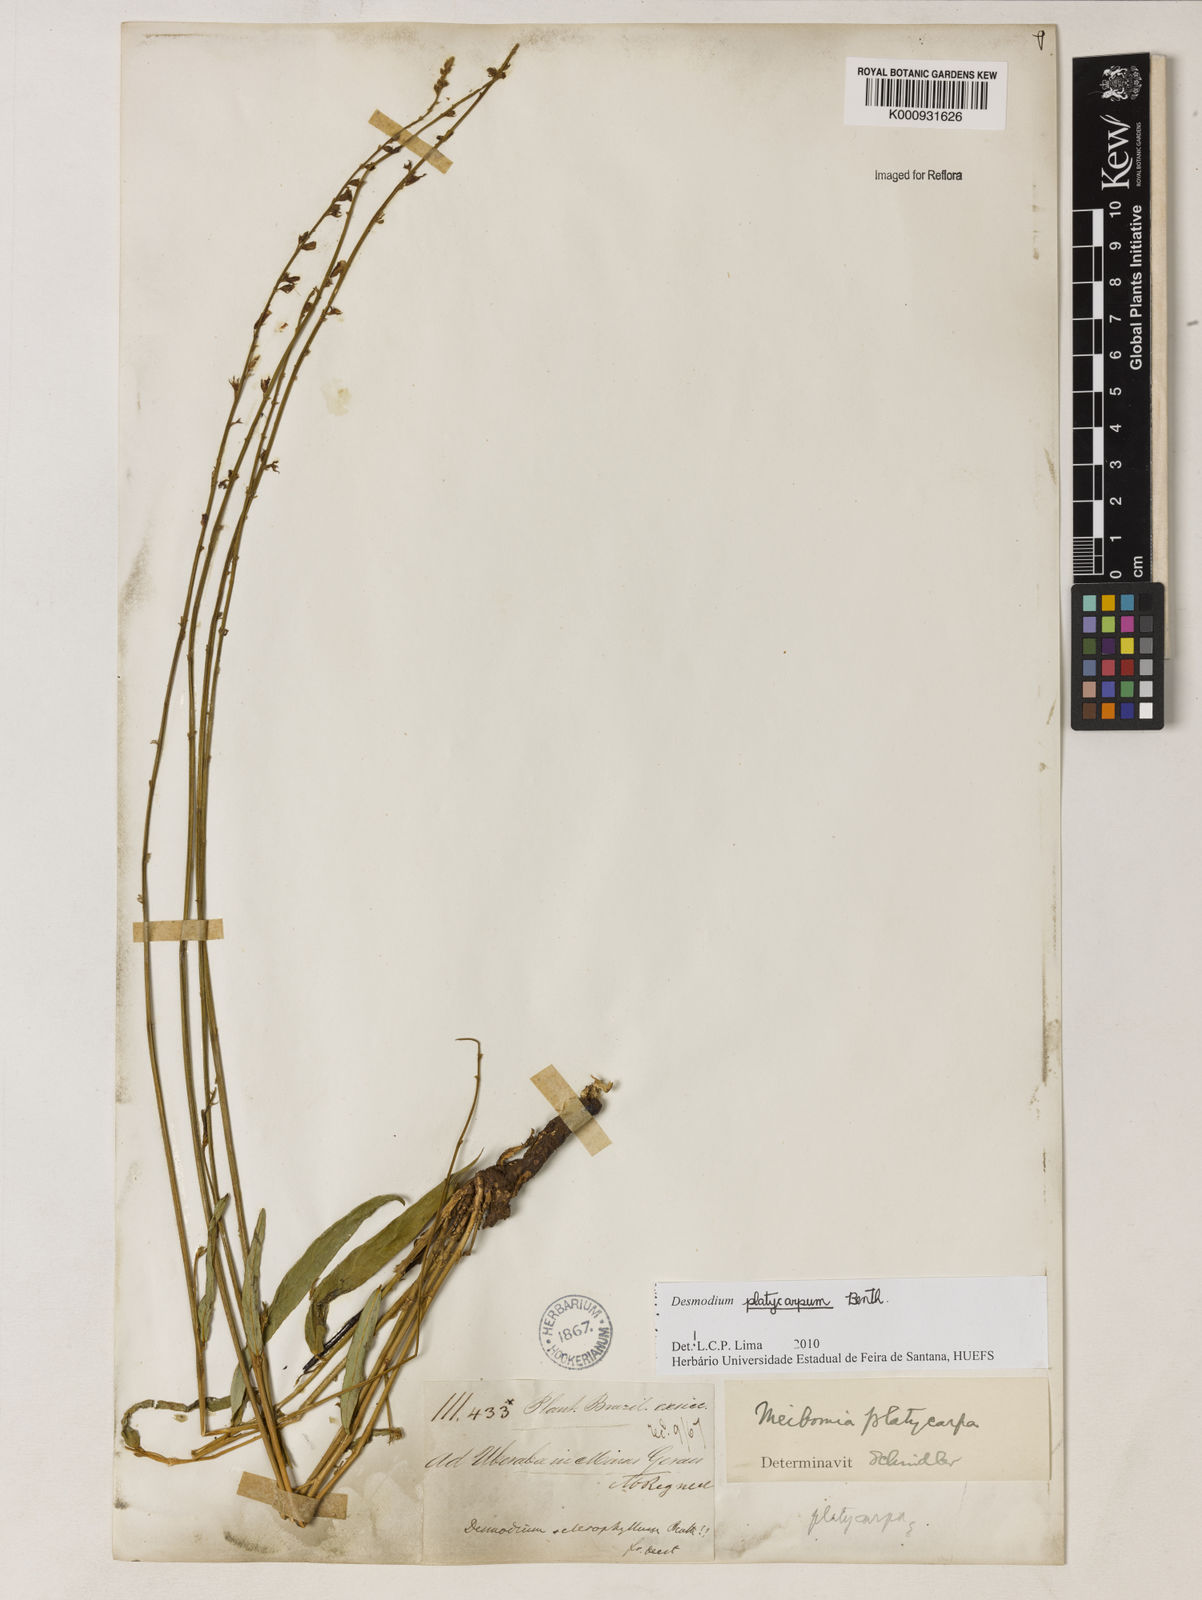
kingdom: Plantae
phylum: Tracheophyta
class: Magnoliopsida
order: Fabales
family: Fabaceae
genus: Desmodium
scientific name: Desmodium platycarpum
